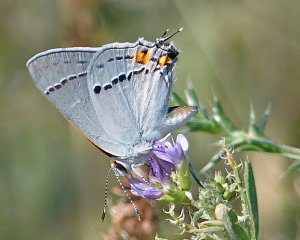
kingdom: Animalia
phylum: Arthropoda
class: Insecta
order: Lepidoptera
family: Lycaenidae
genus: Strymon
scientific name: Strymon melinus
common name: Gray Hairstreak
